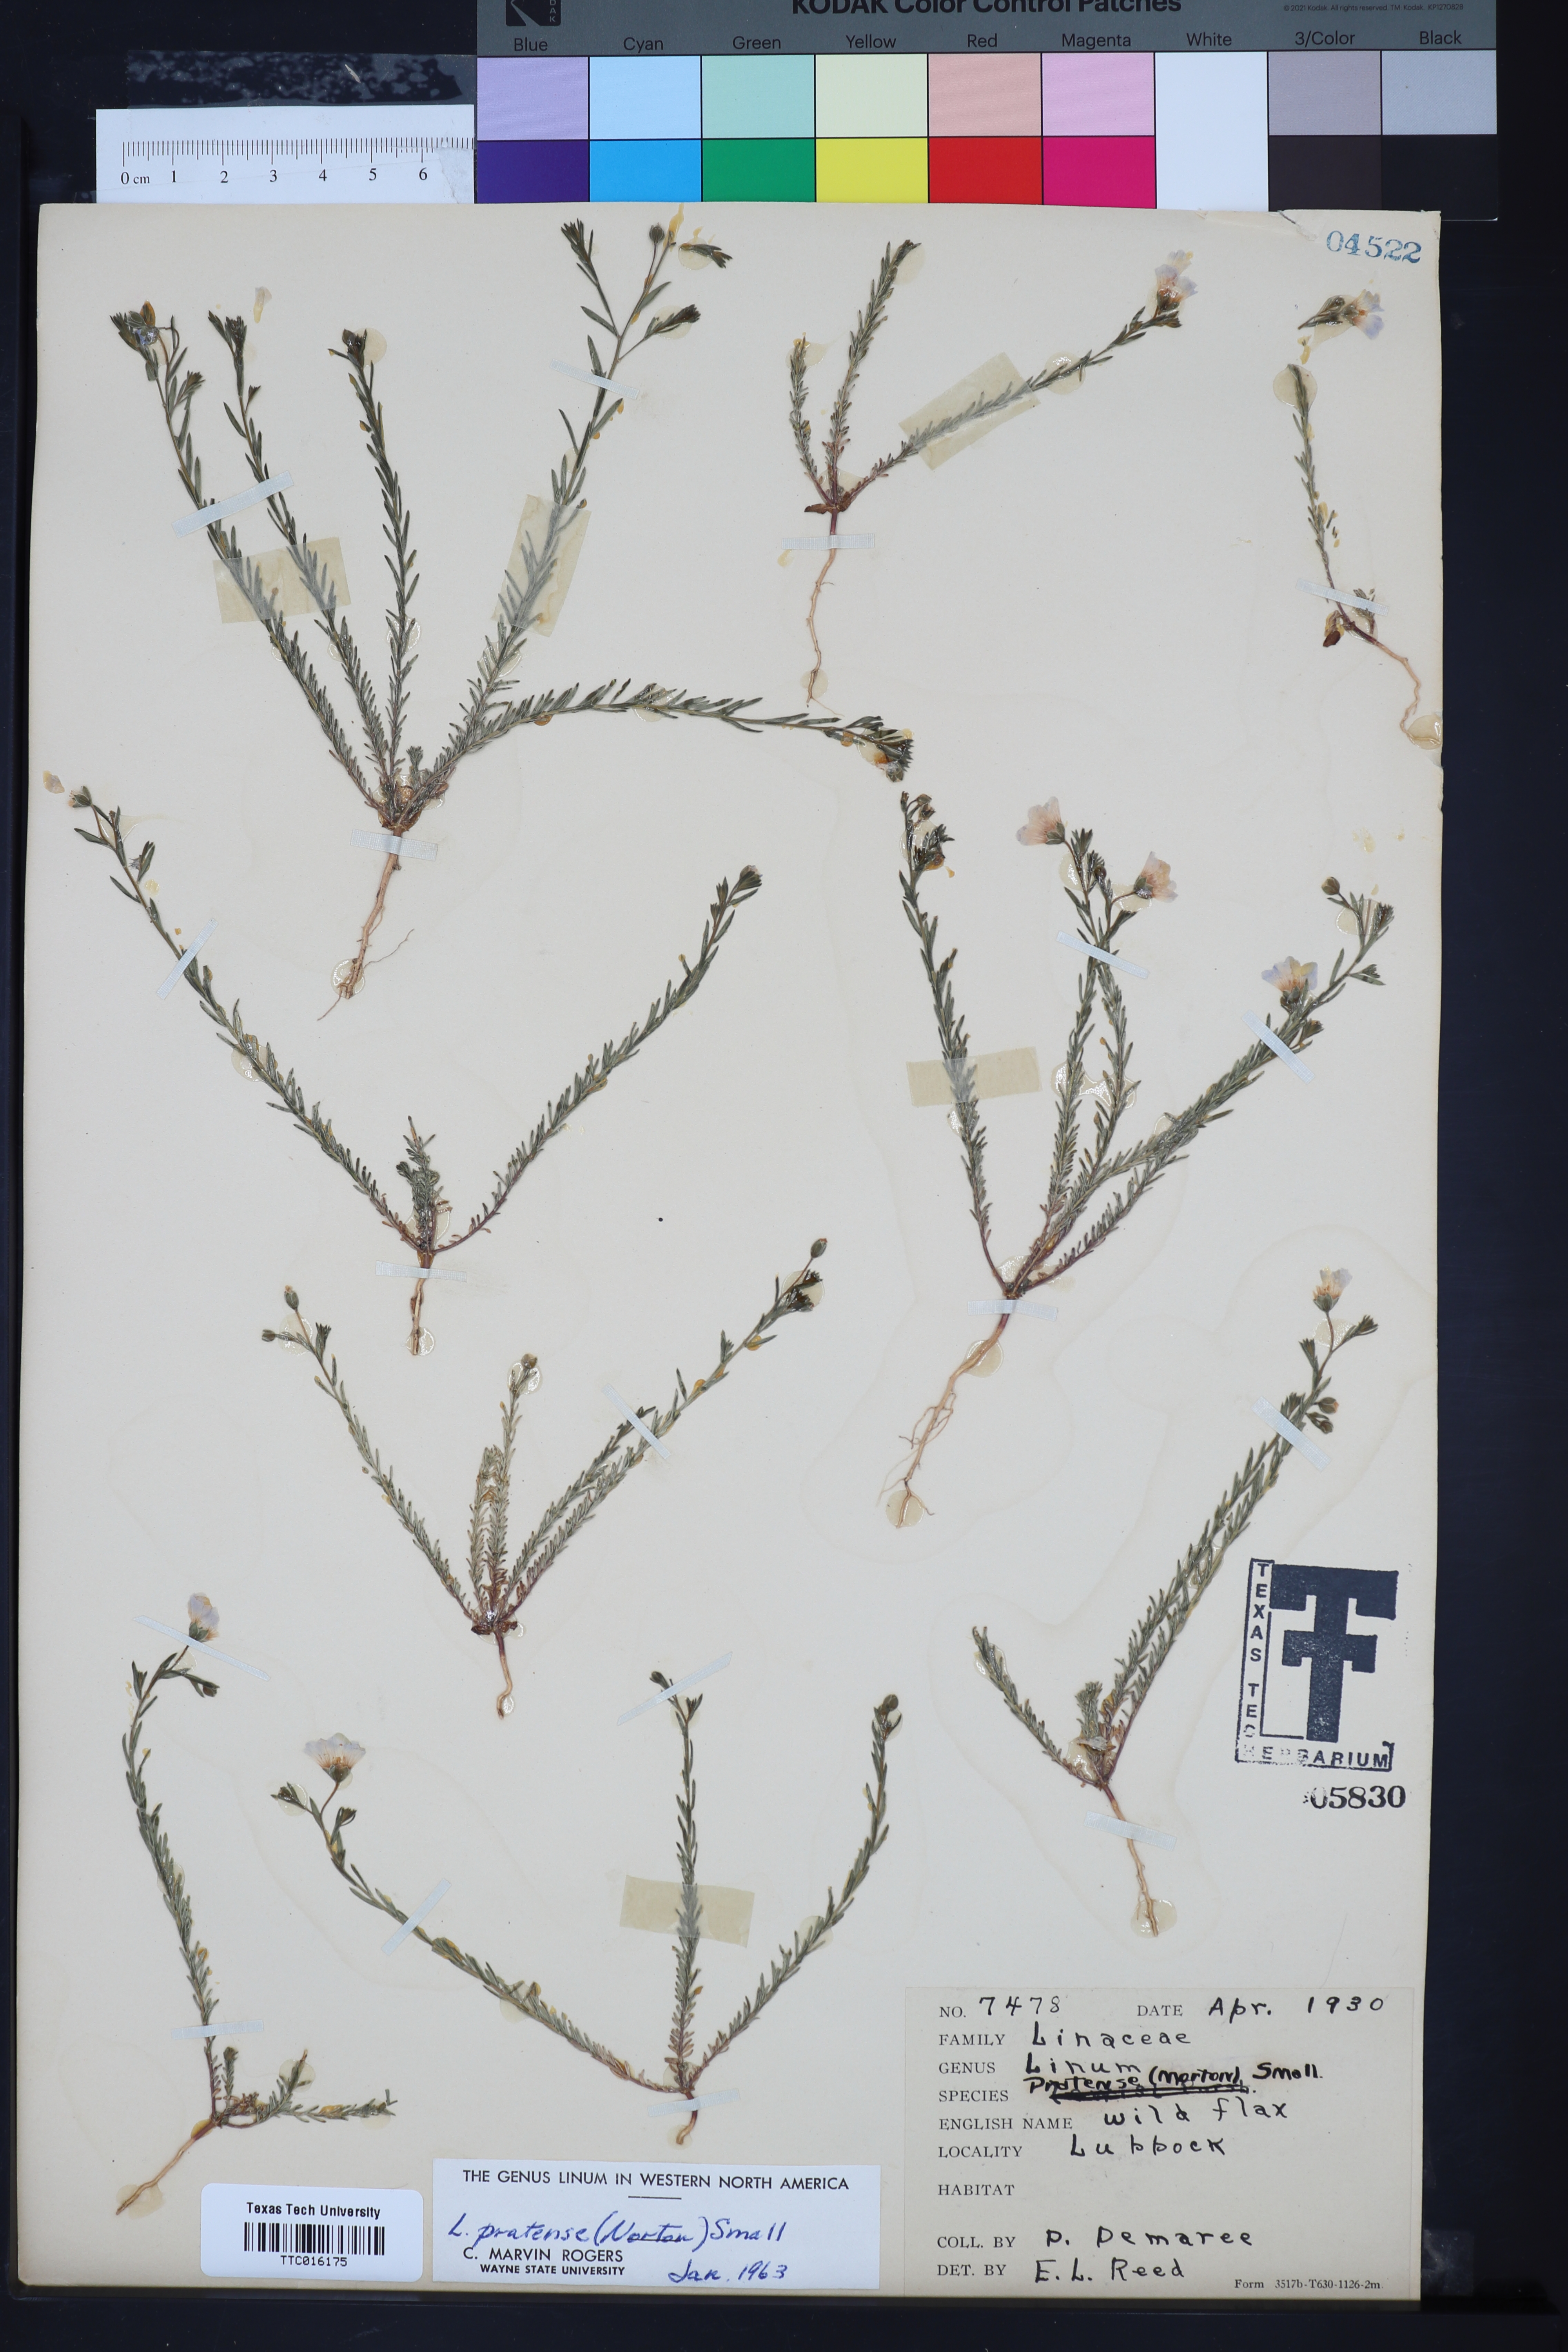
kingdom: Plantae
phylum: Tracheophyta
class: Magnoliopsida
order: Malpighiales
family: Linaceae
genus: Linum
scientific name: Linum pratense
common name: Norton's flax
